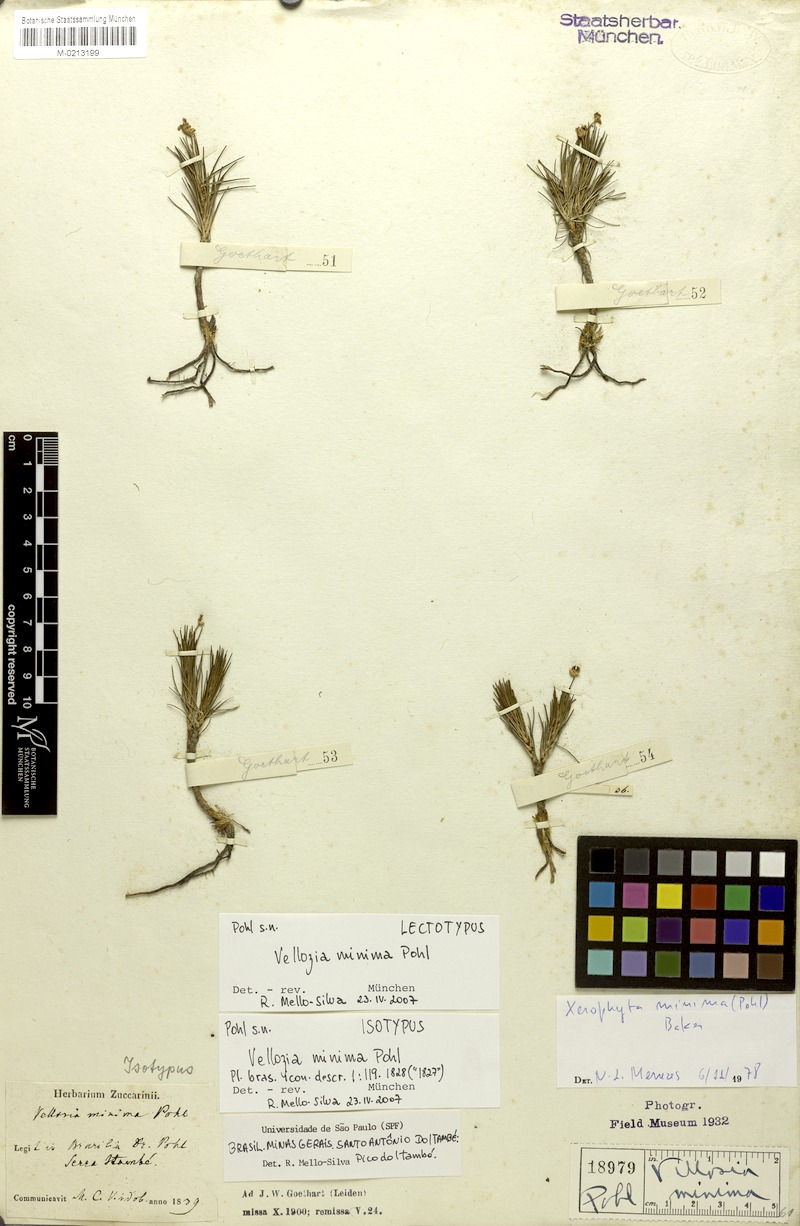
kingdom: Plantae
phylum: Tracheophyta
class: Liliopsida
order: Pandanales
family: Velloziaceae
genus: Vellozia
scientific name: Vellozia minima
